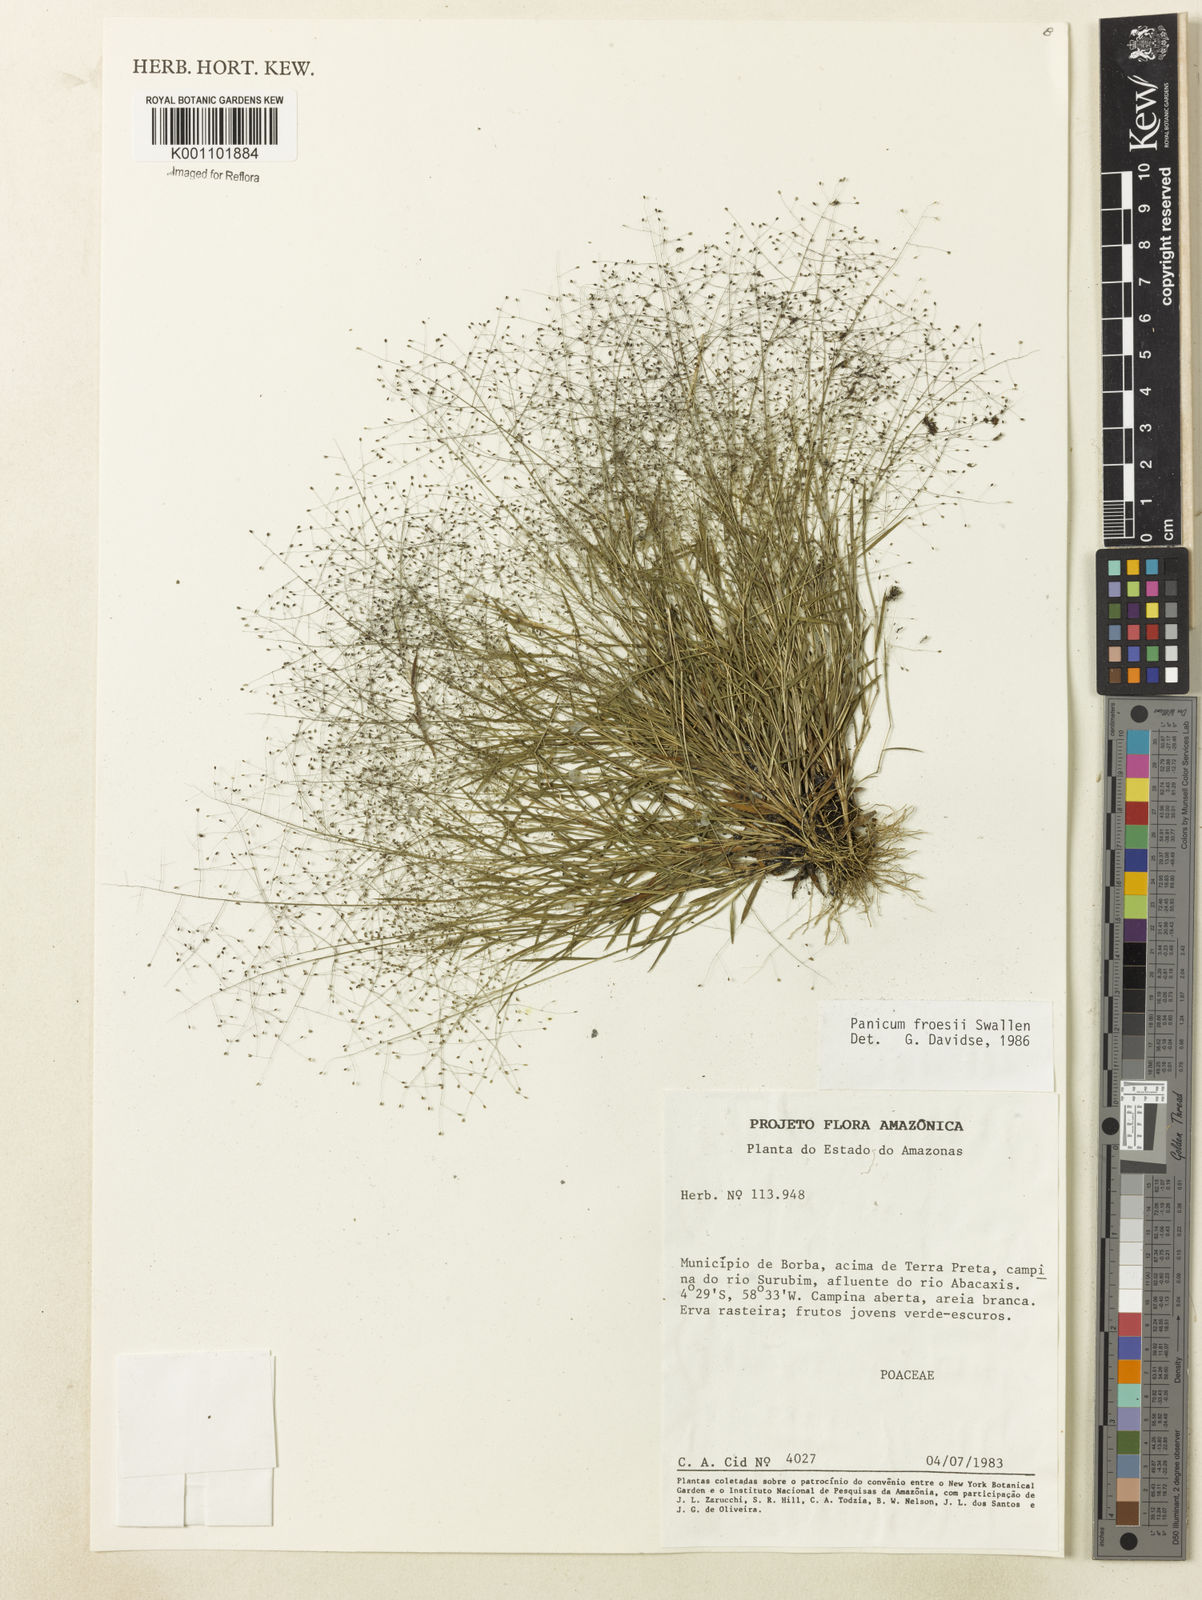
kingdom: Plantae
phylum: Tracheophyta
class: Liliopsida
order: Poales
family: Poaceae
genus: Trichanthecium
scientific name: Trichanthecium polycomum
